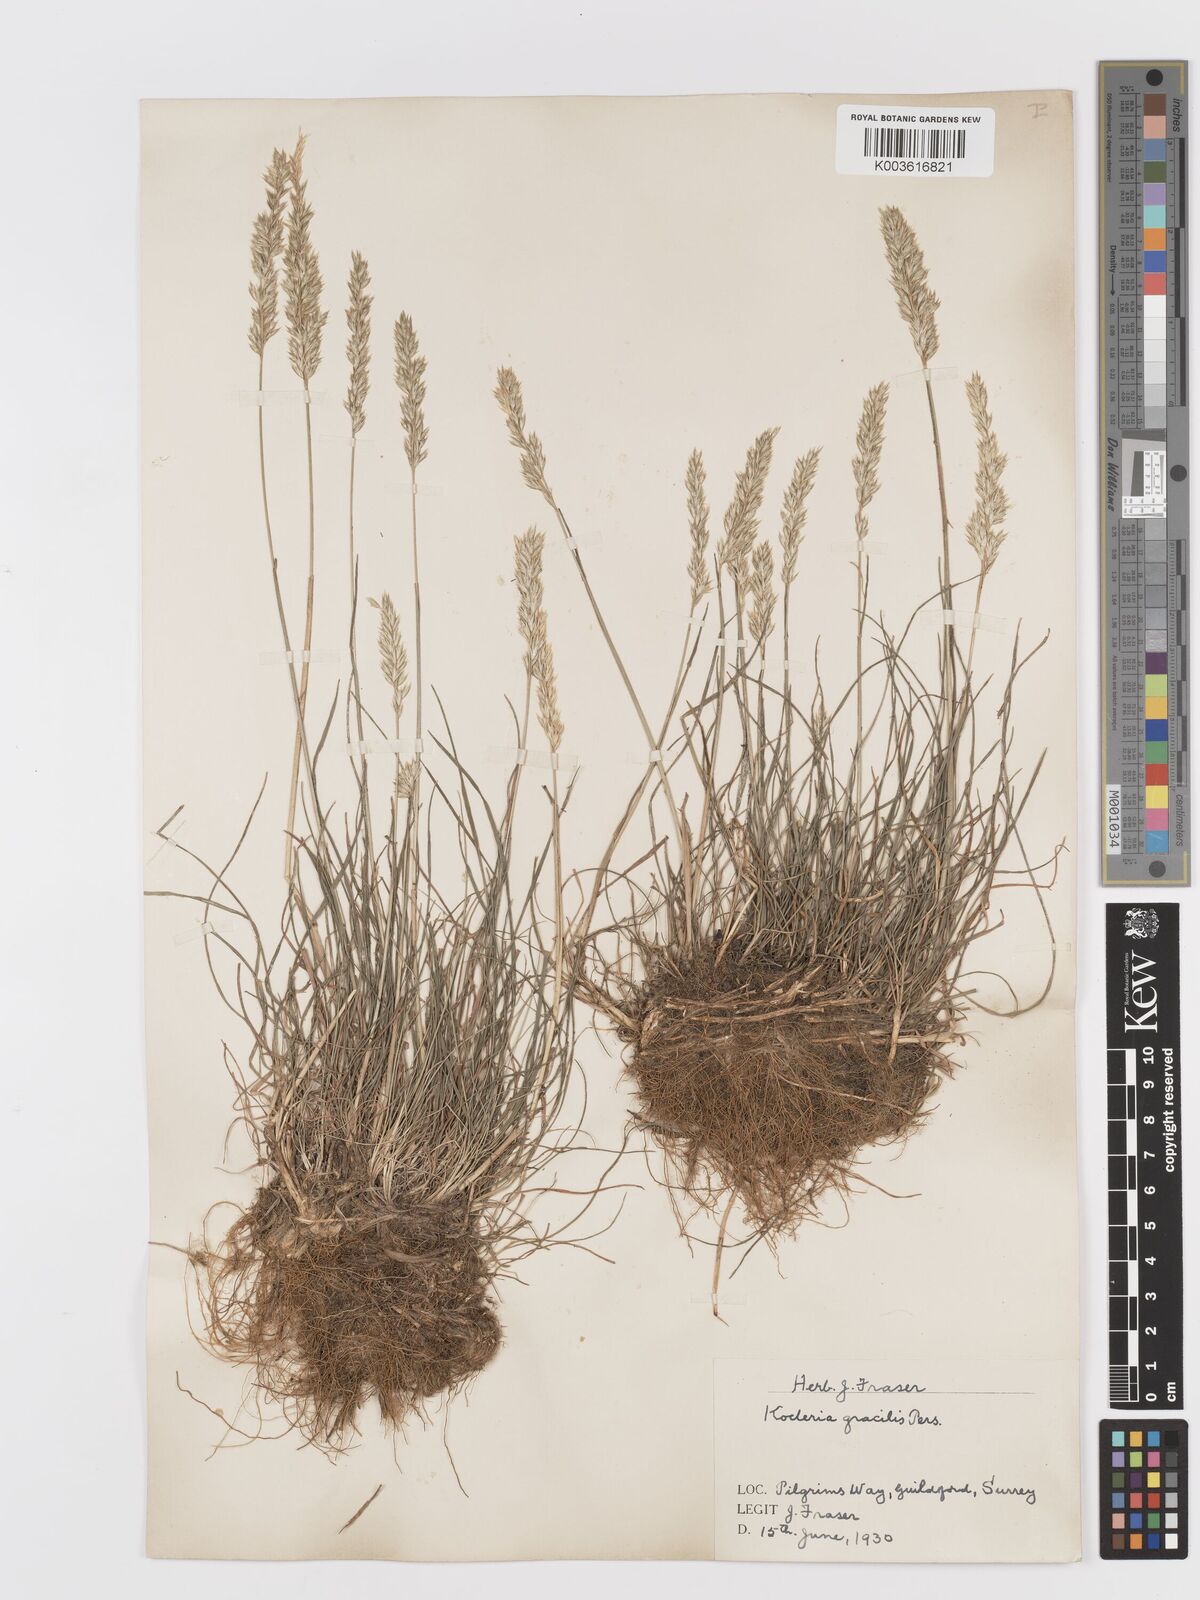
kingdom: Plantae
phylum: Tracheophyta
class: Liliopsida
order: Poales
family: Poaceae
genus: Koeleria
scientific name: Koeleria macrantha
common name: Crested hair-grass
